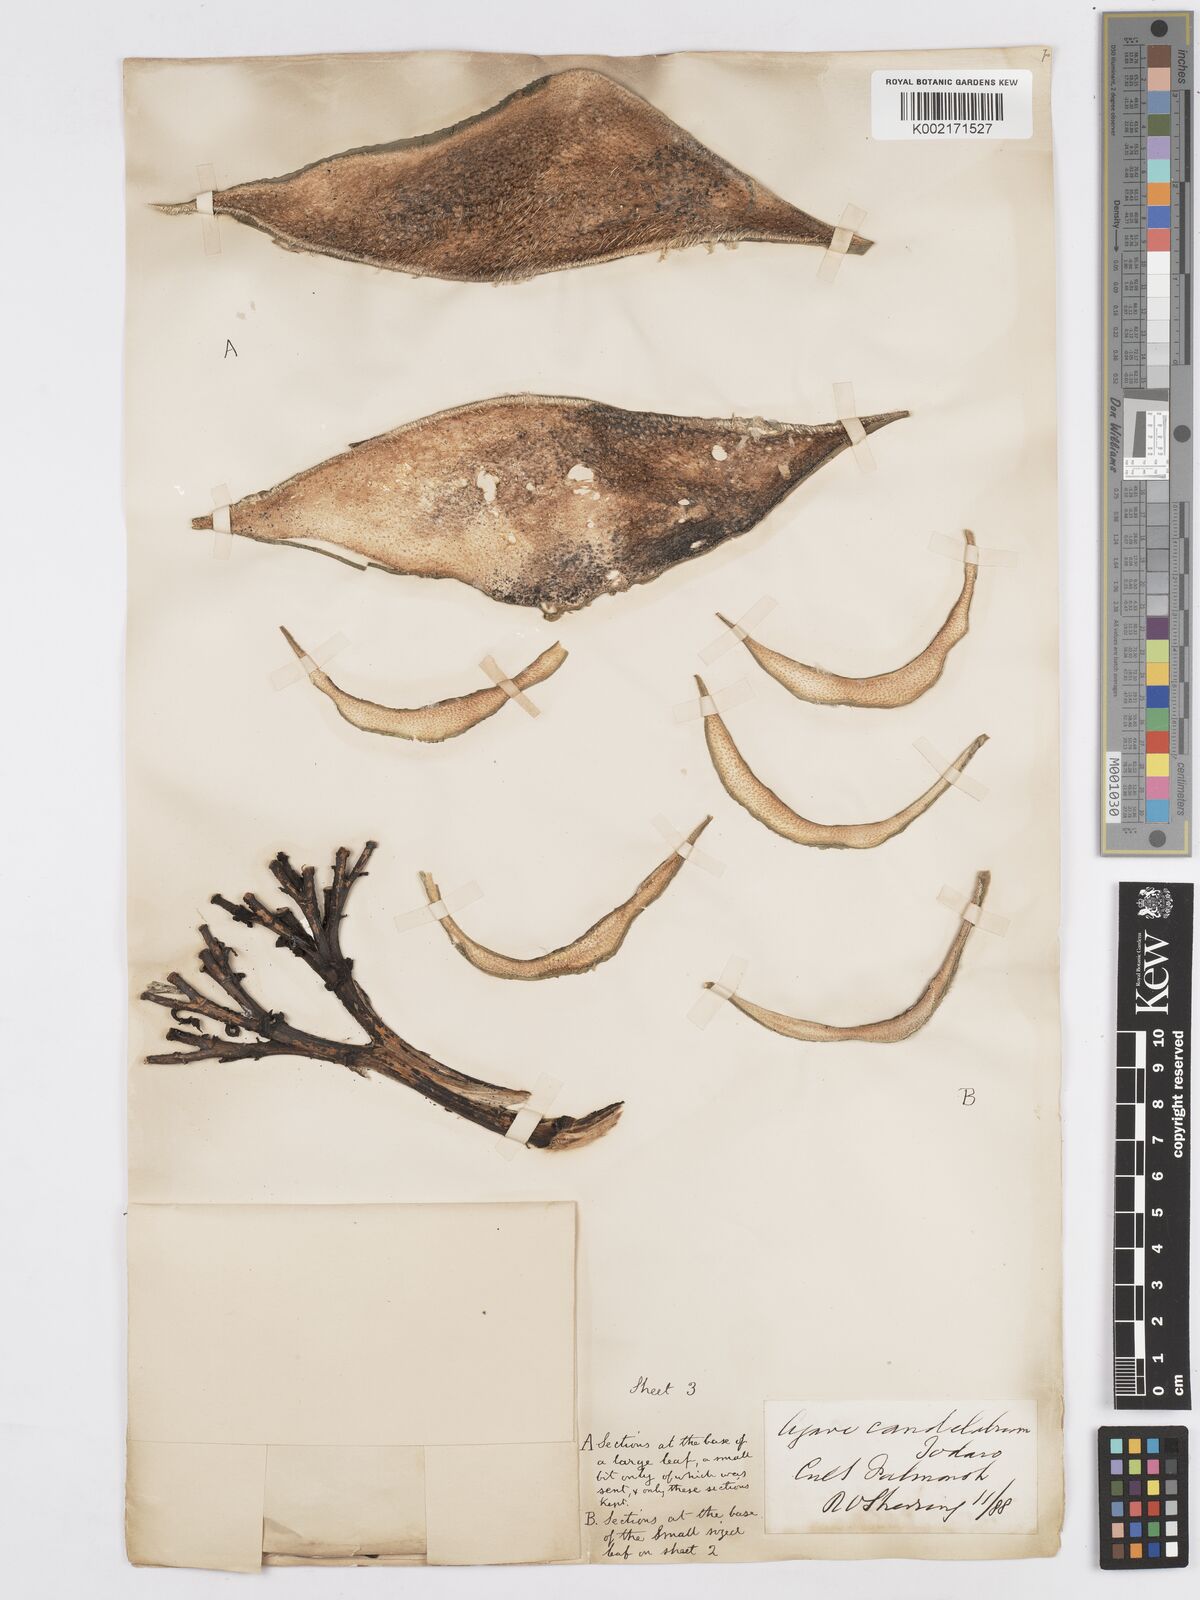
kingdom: Plantae
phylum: Tracheophyta
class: Liliopsida
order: Asparagales
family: Asparagaceae
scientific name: Asparagaceae
